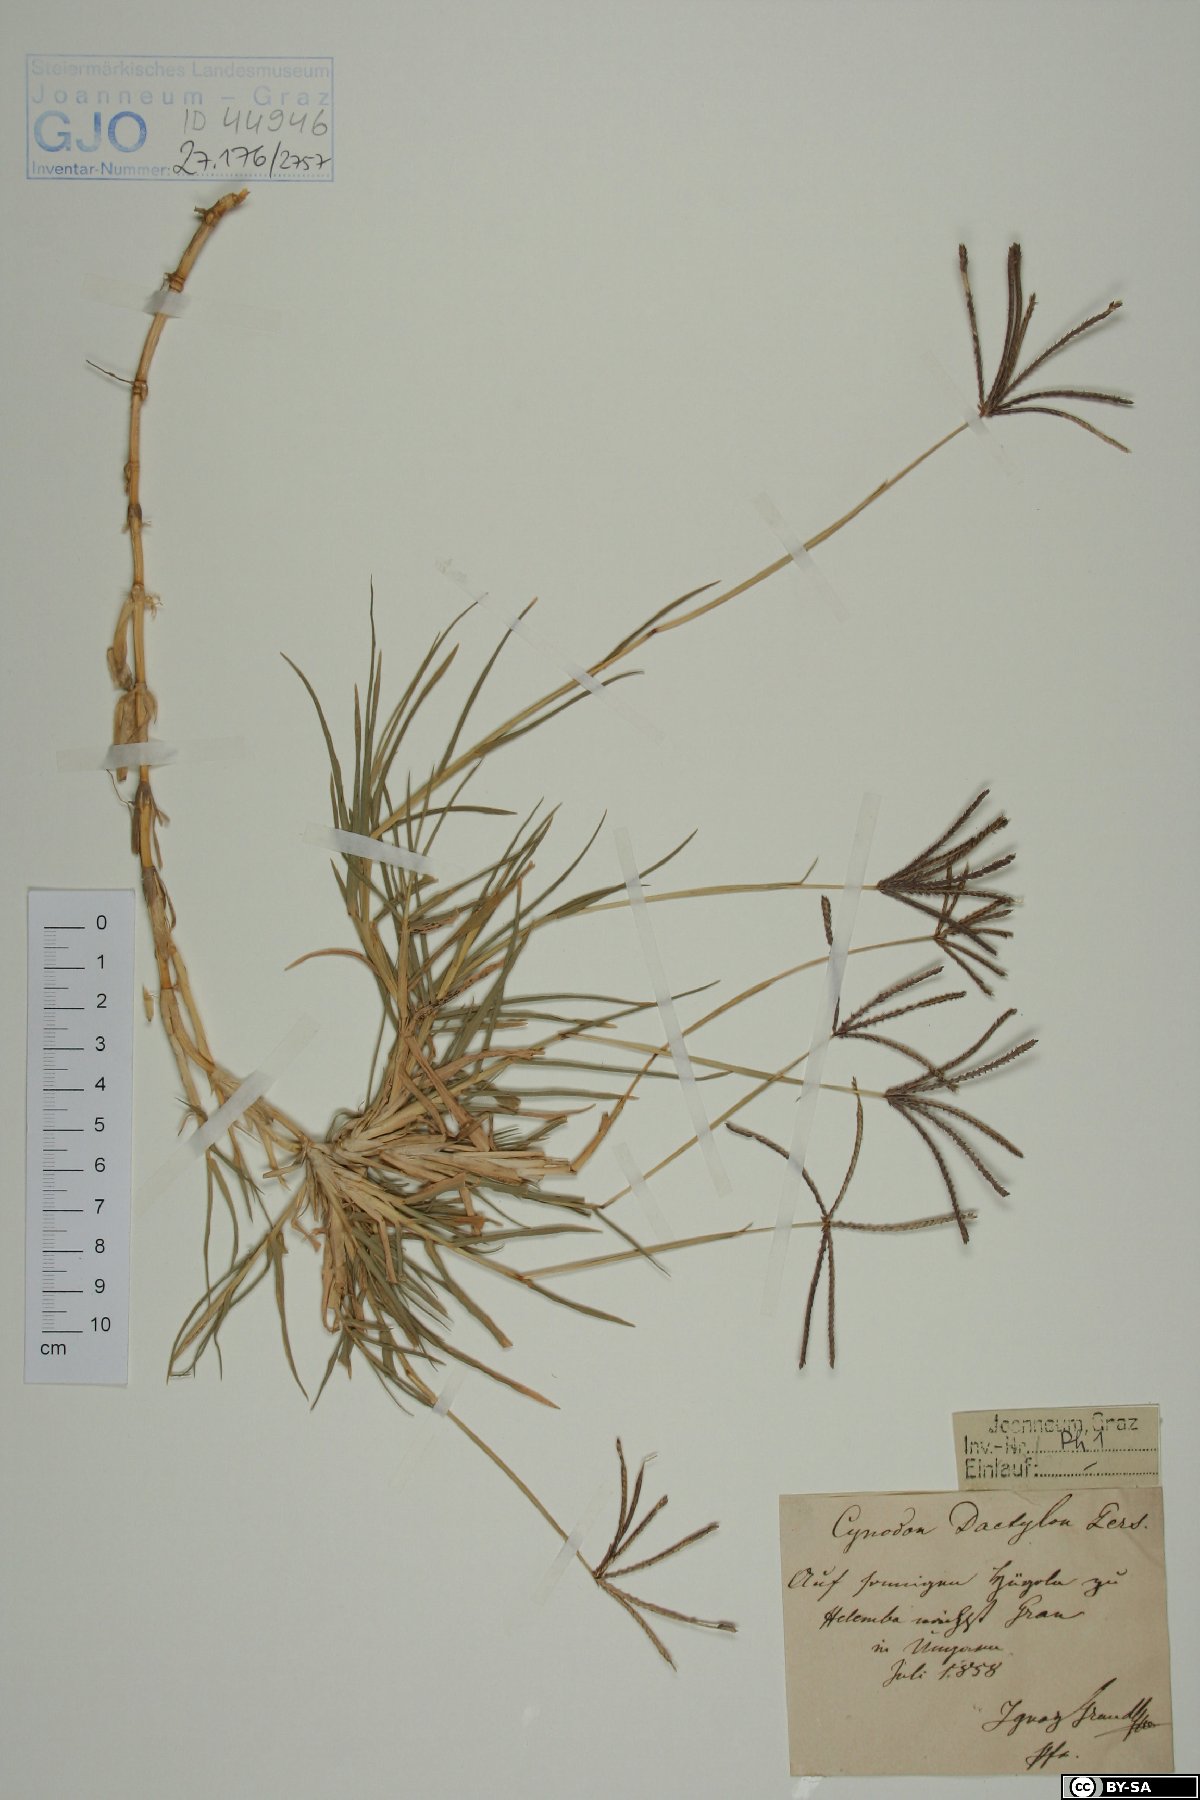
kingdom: Plantae
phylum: Tracheophyta
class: Liliopsida
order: Poales
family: Poaceae
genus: Cynodon
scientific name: Cynodon dactylon
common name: Bermuda grass
